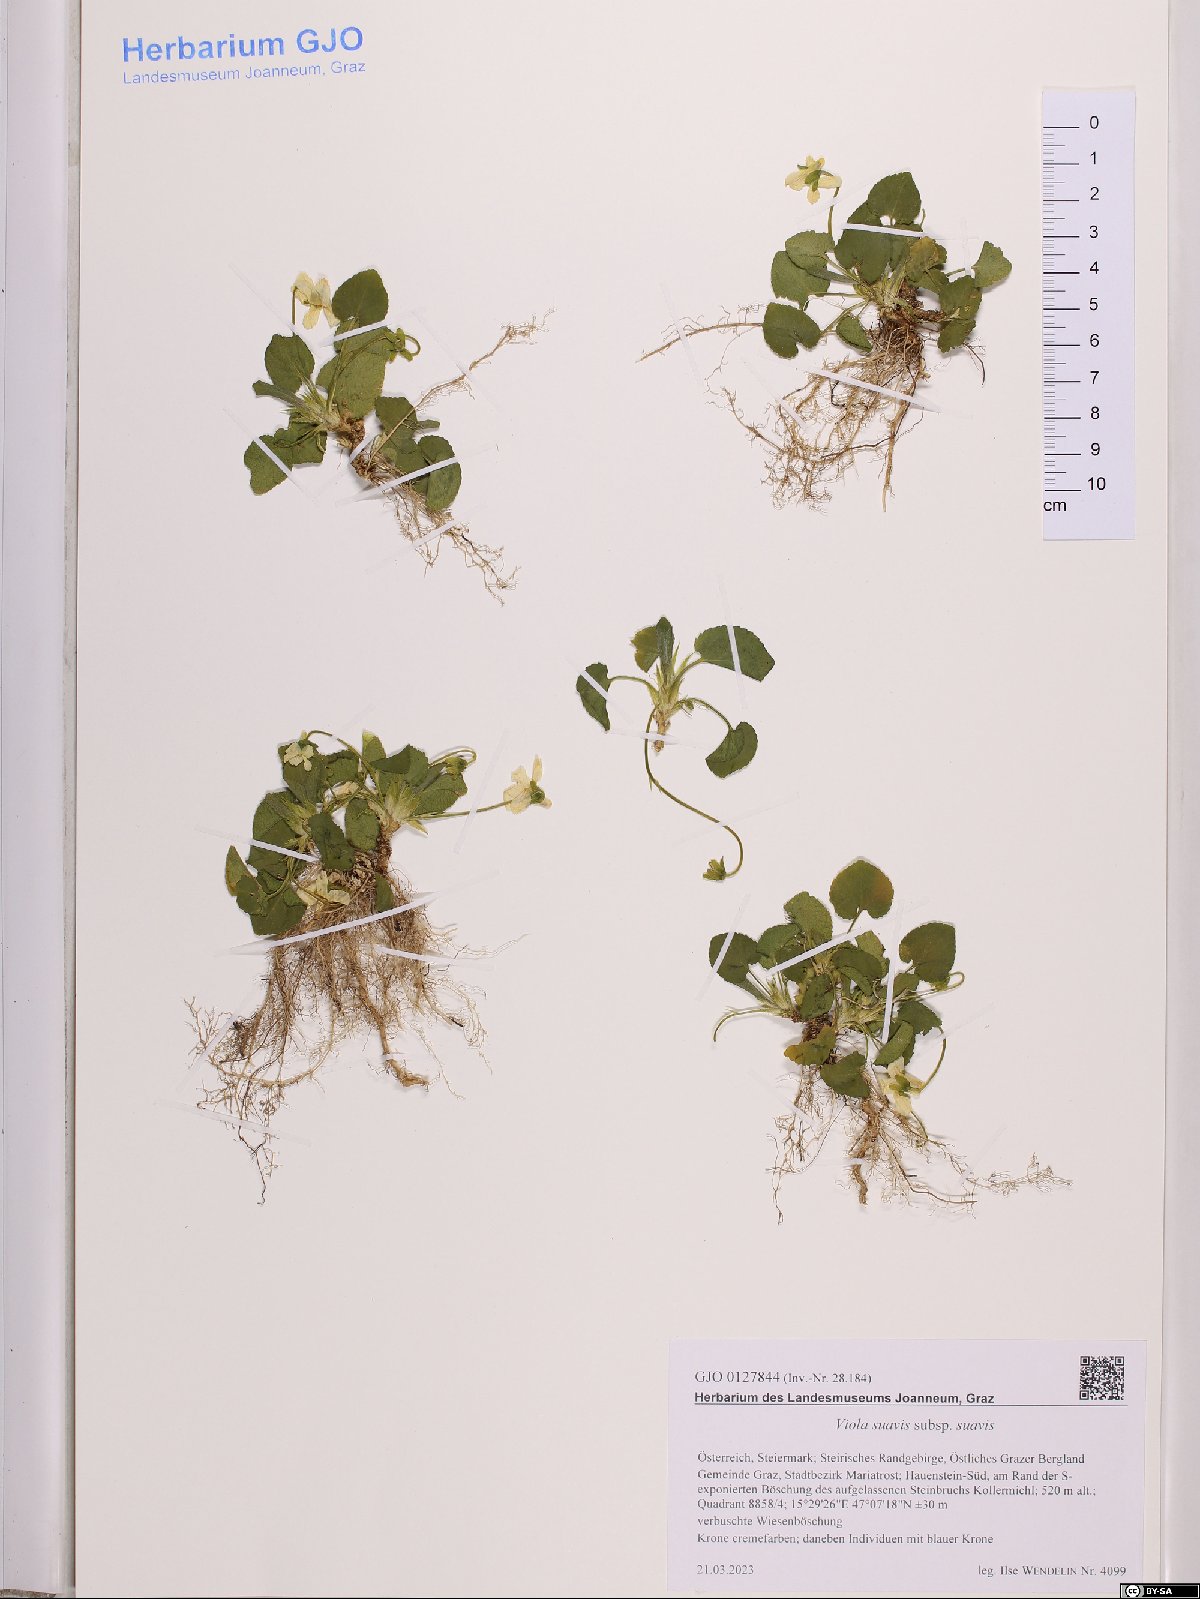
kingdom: Plantae
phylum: Tracheophyta
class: Magnoliopsida
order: Malpighiales
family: Violaceae
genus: Viola
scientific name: Viola suavis
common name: Russian violet
